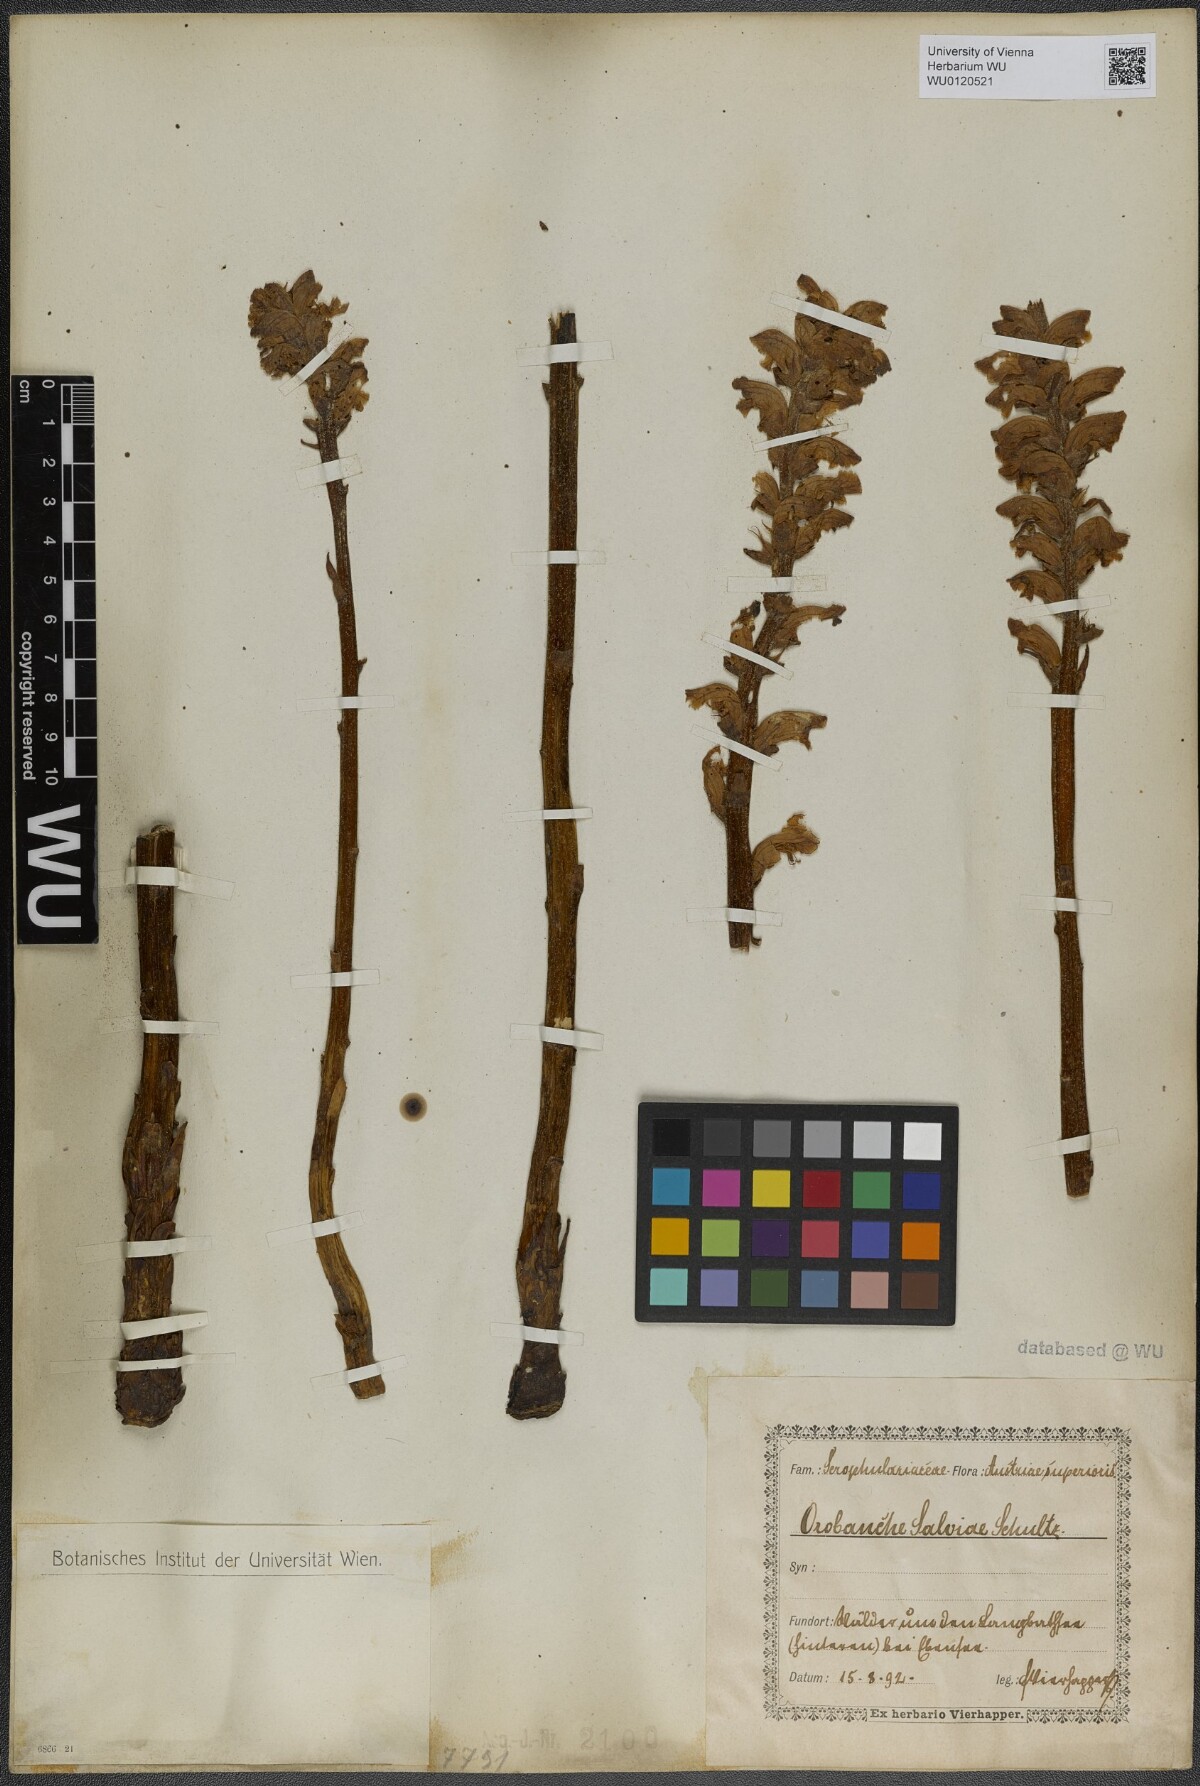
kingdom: Plantae
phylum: Tracheophyta
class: Magnoliopsida
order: Lamiales
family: Orobanchaceae
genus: Orobanche
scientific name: Orobanche salviae
